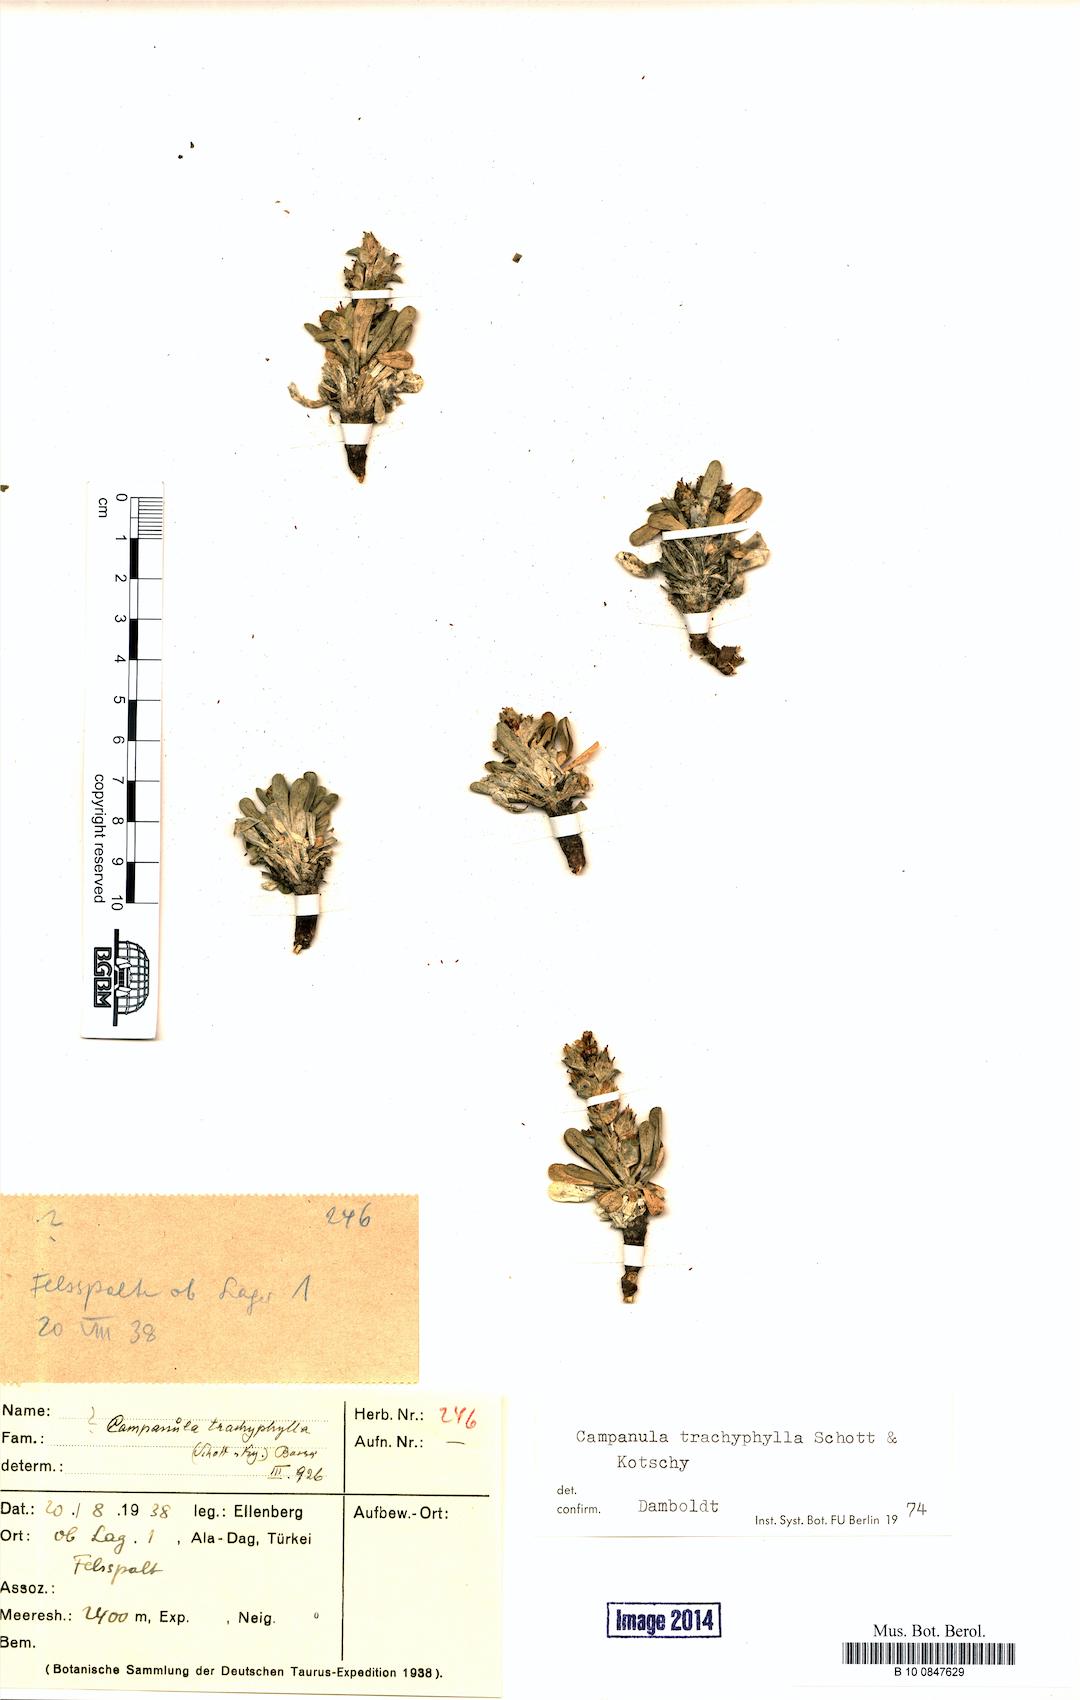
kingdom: Plantae
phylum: Tracheophyta
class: Magnoliopsida
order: Asterales
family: Campanulaceae
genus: Campanula
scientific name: Campanula trachyphylla
